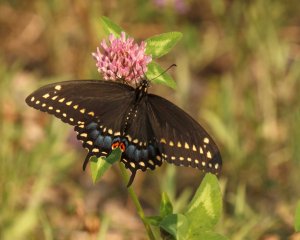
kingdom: Animalia
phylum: Arthropoda
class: Insecta
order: Lepidoptera
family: Papilionidae
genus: Papilio
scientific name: Papilio polyxenes
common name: Black Swallowtail
